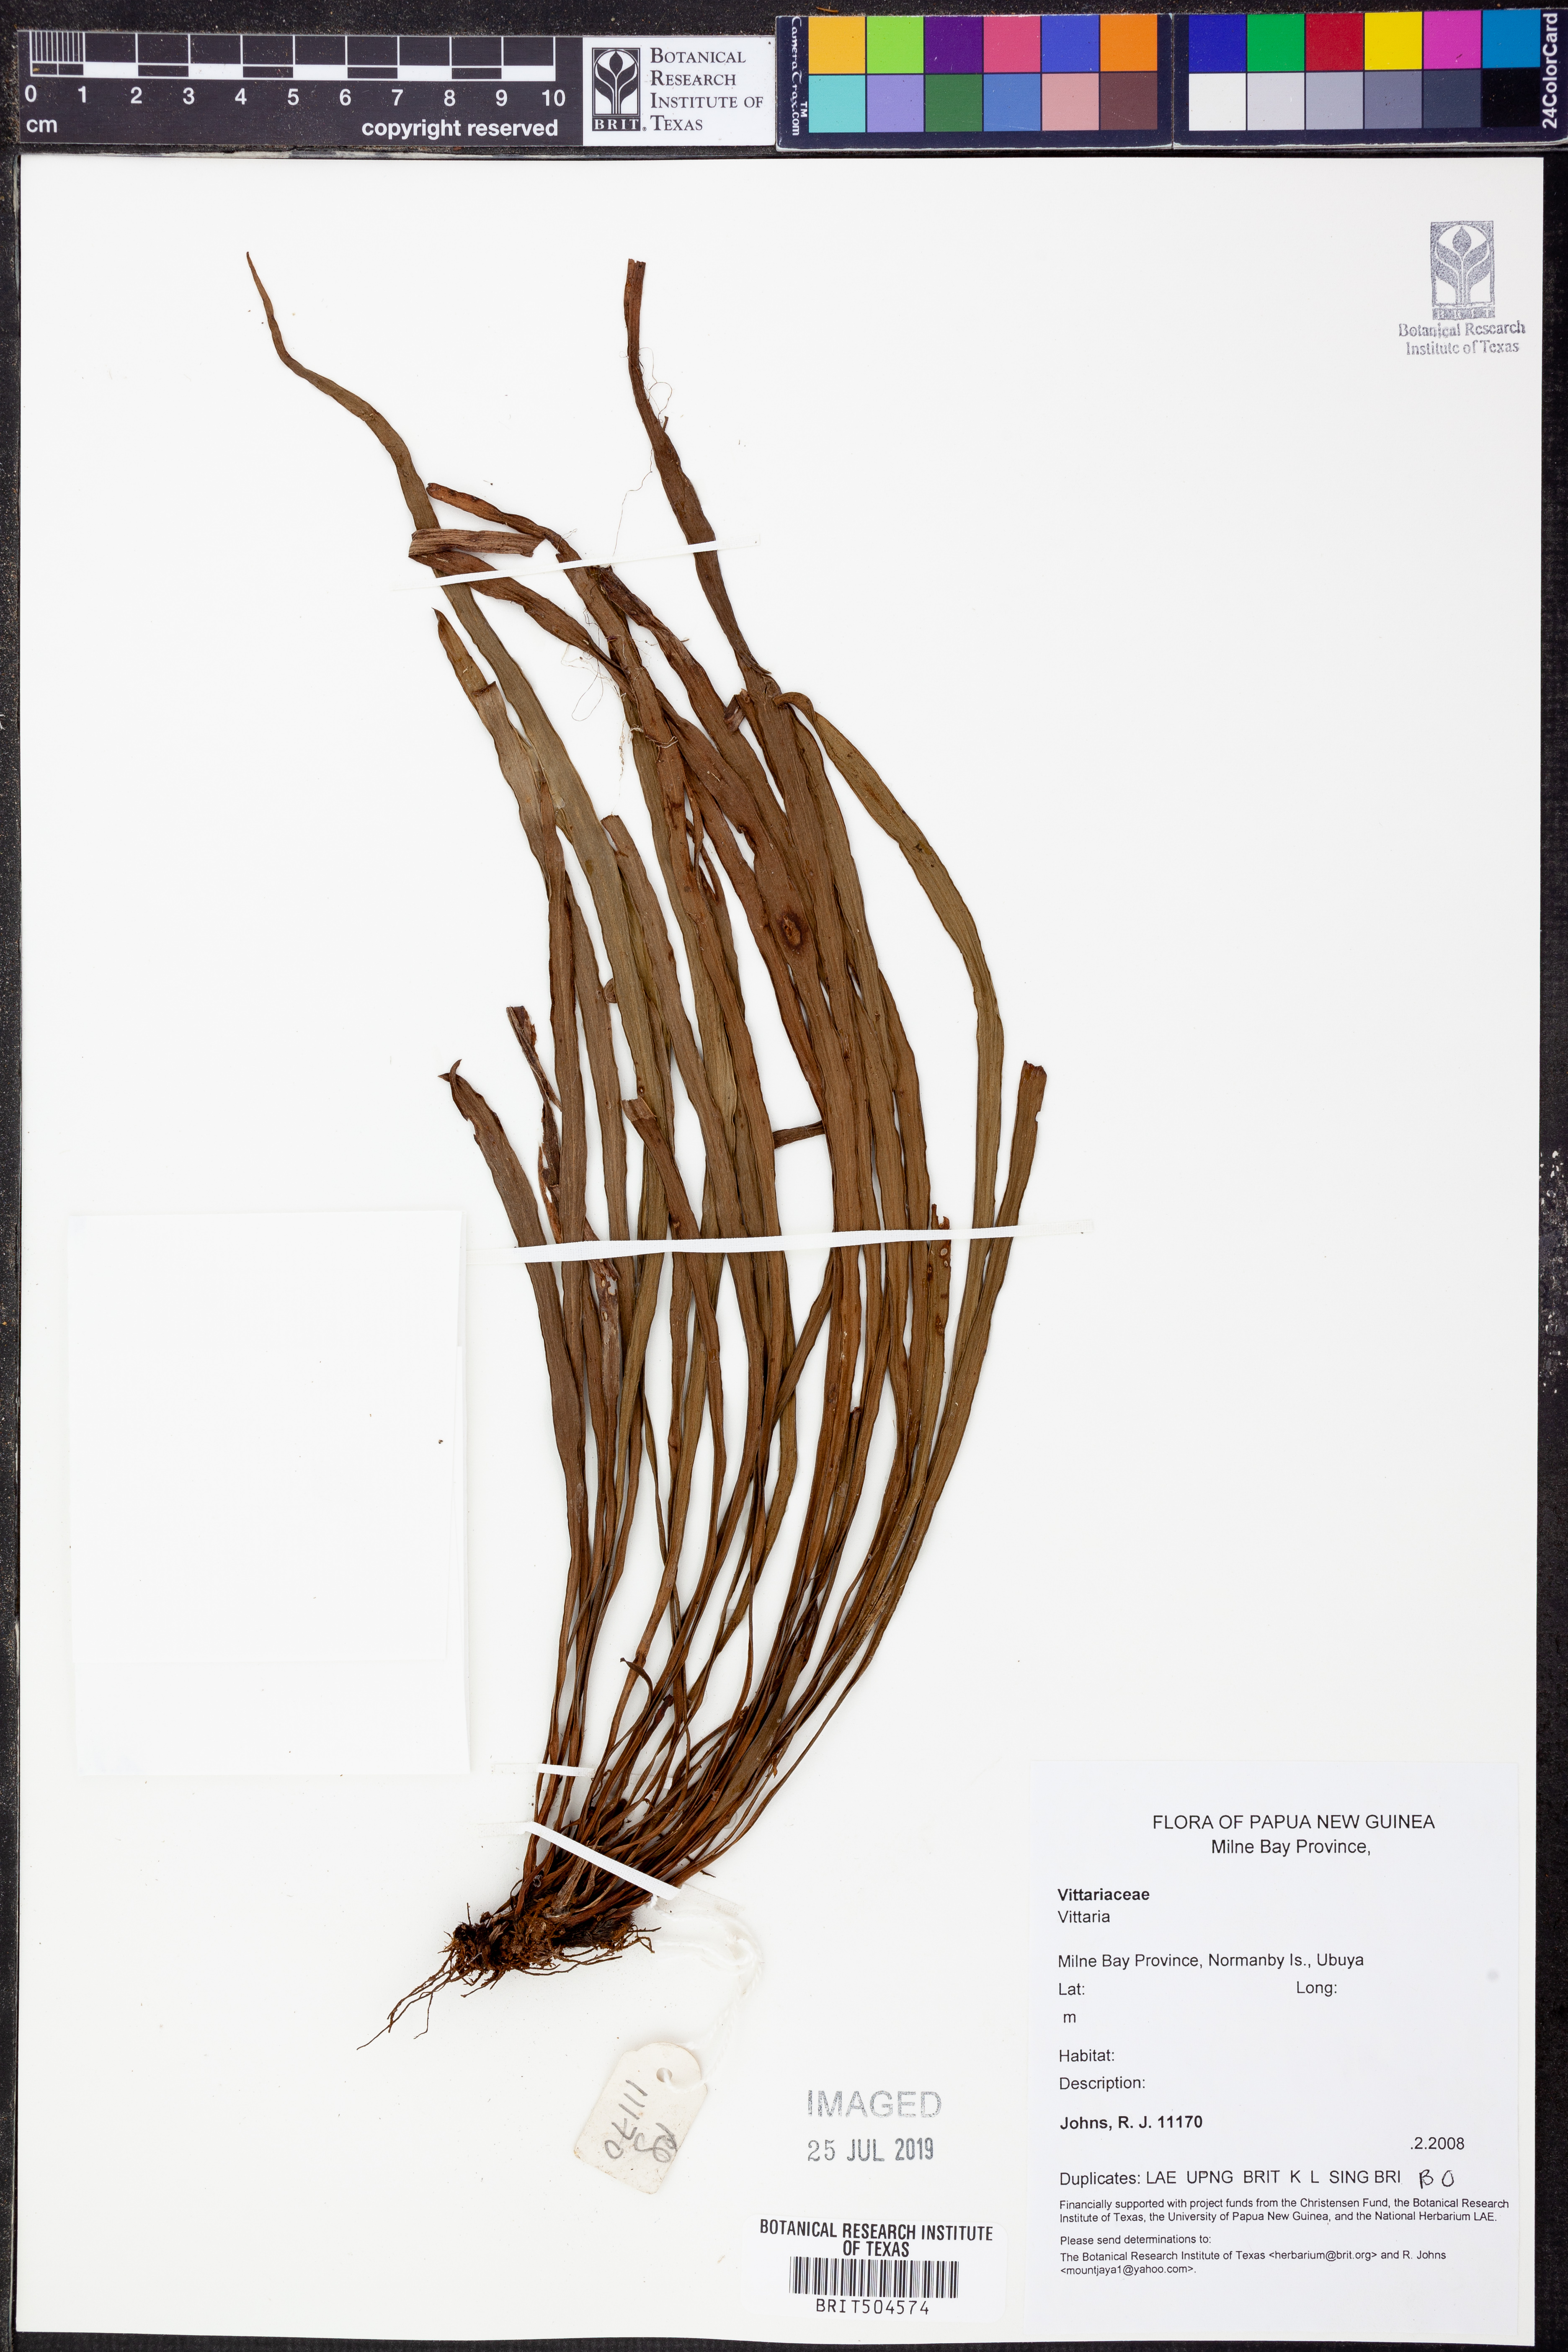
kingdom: Plantae
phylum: Tracheophyta
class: Polypodiopsida
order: Polypodiales
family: Pteridaceae
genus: Vittaria
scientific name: Vittaria
